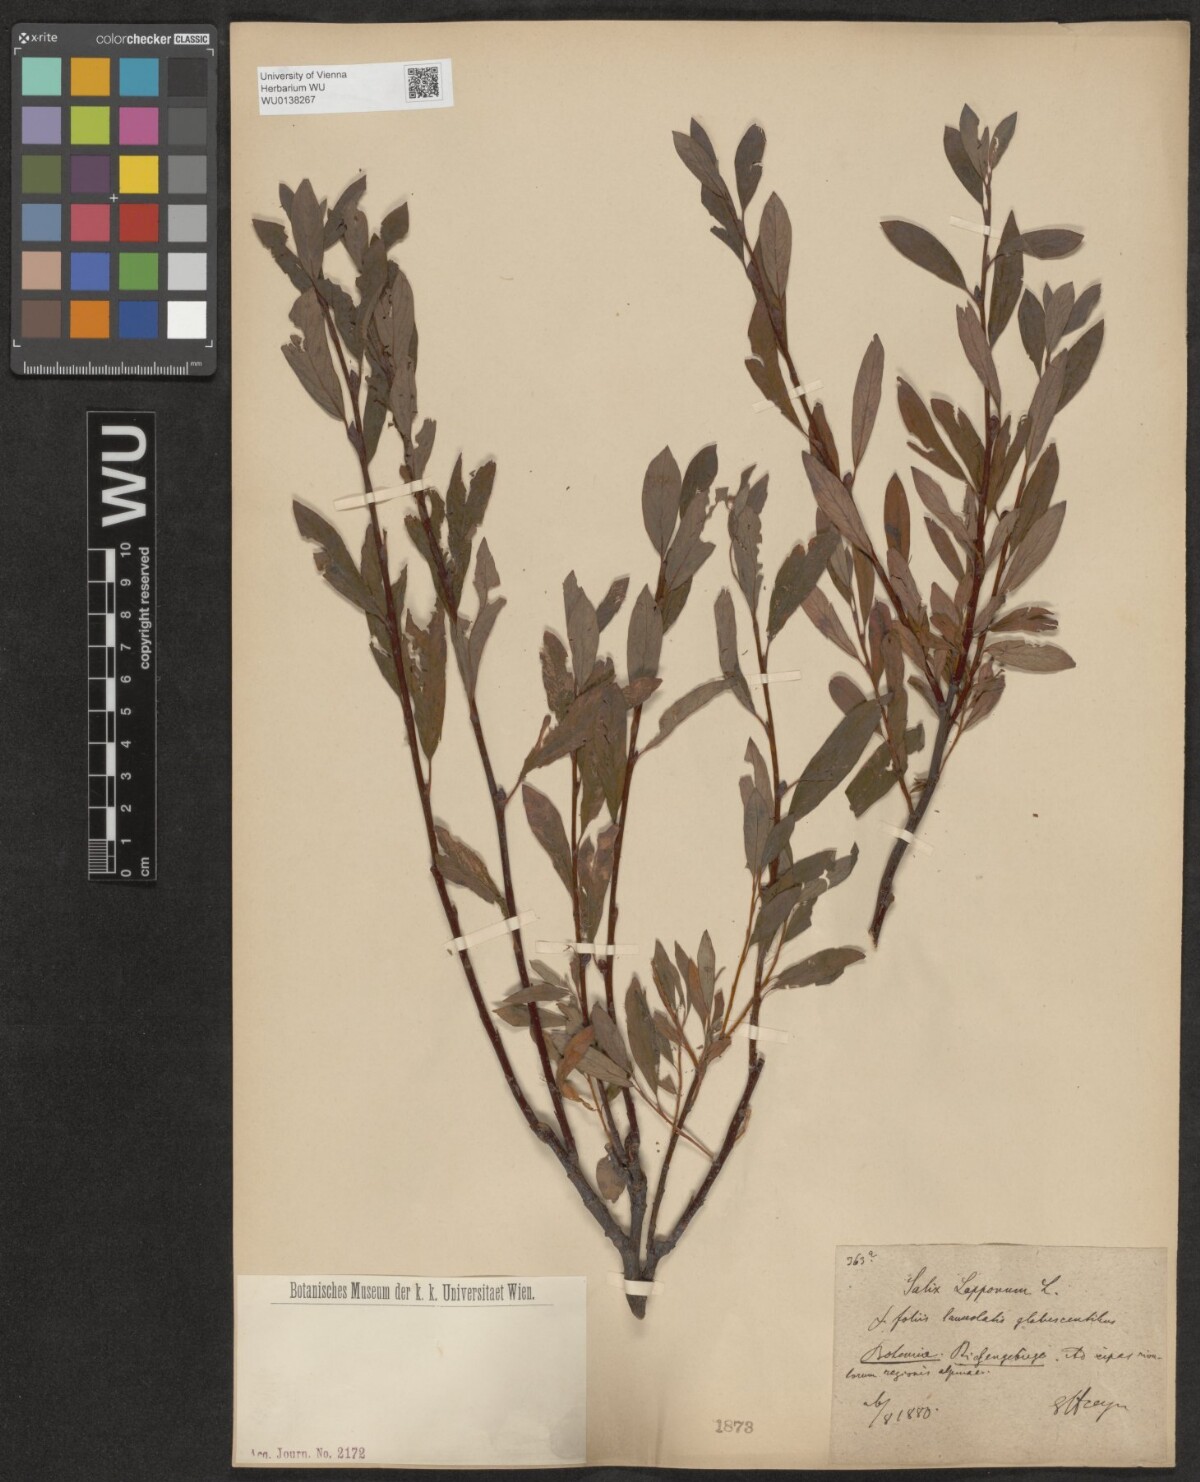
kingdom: Plantae
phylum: Tracheophyta
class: Magnoliopsida
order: Malpighiales
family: Salicaceae
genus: Salix
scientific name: Salix lapponum
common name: Downy willow
